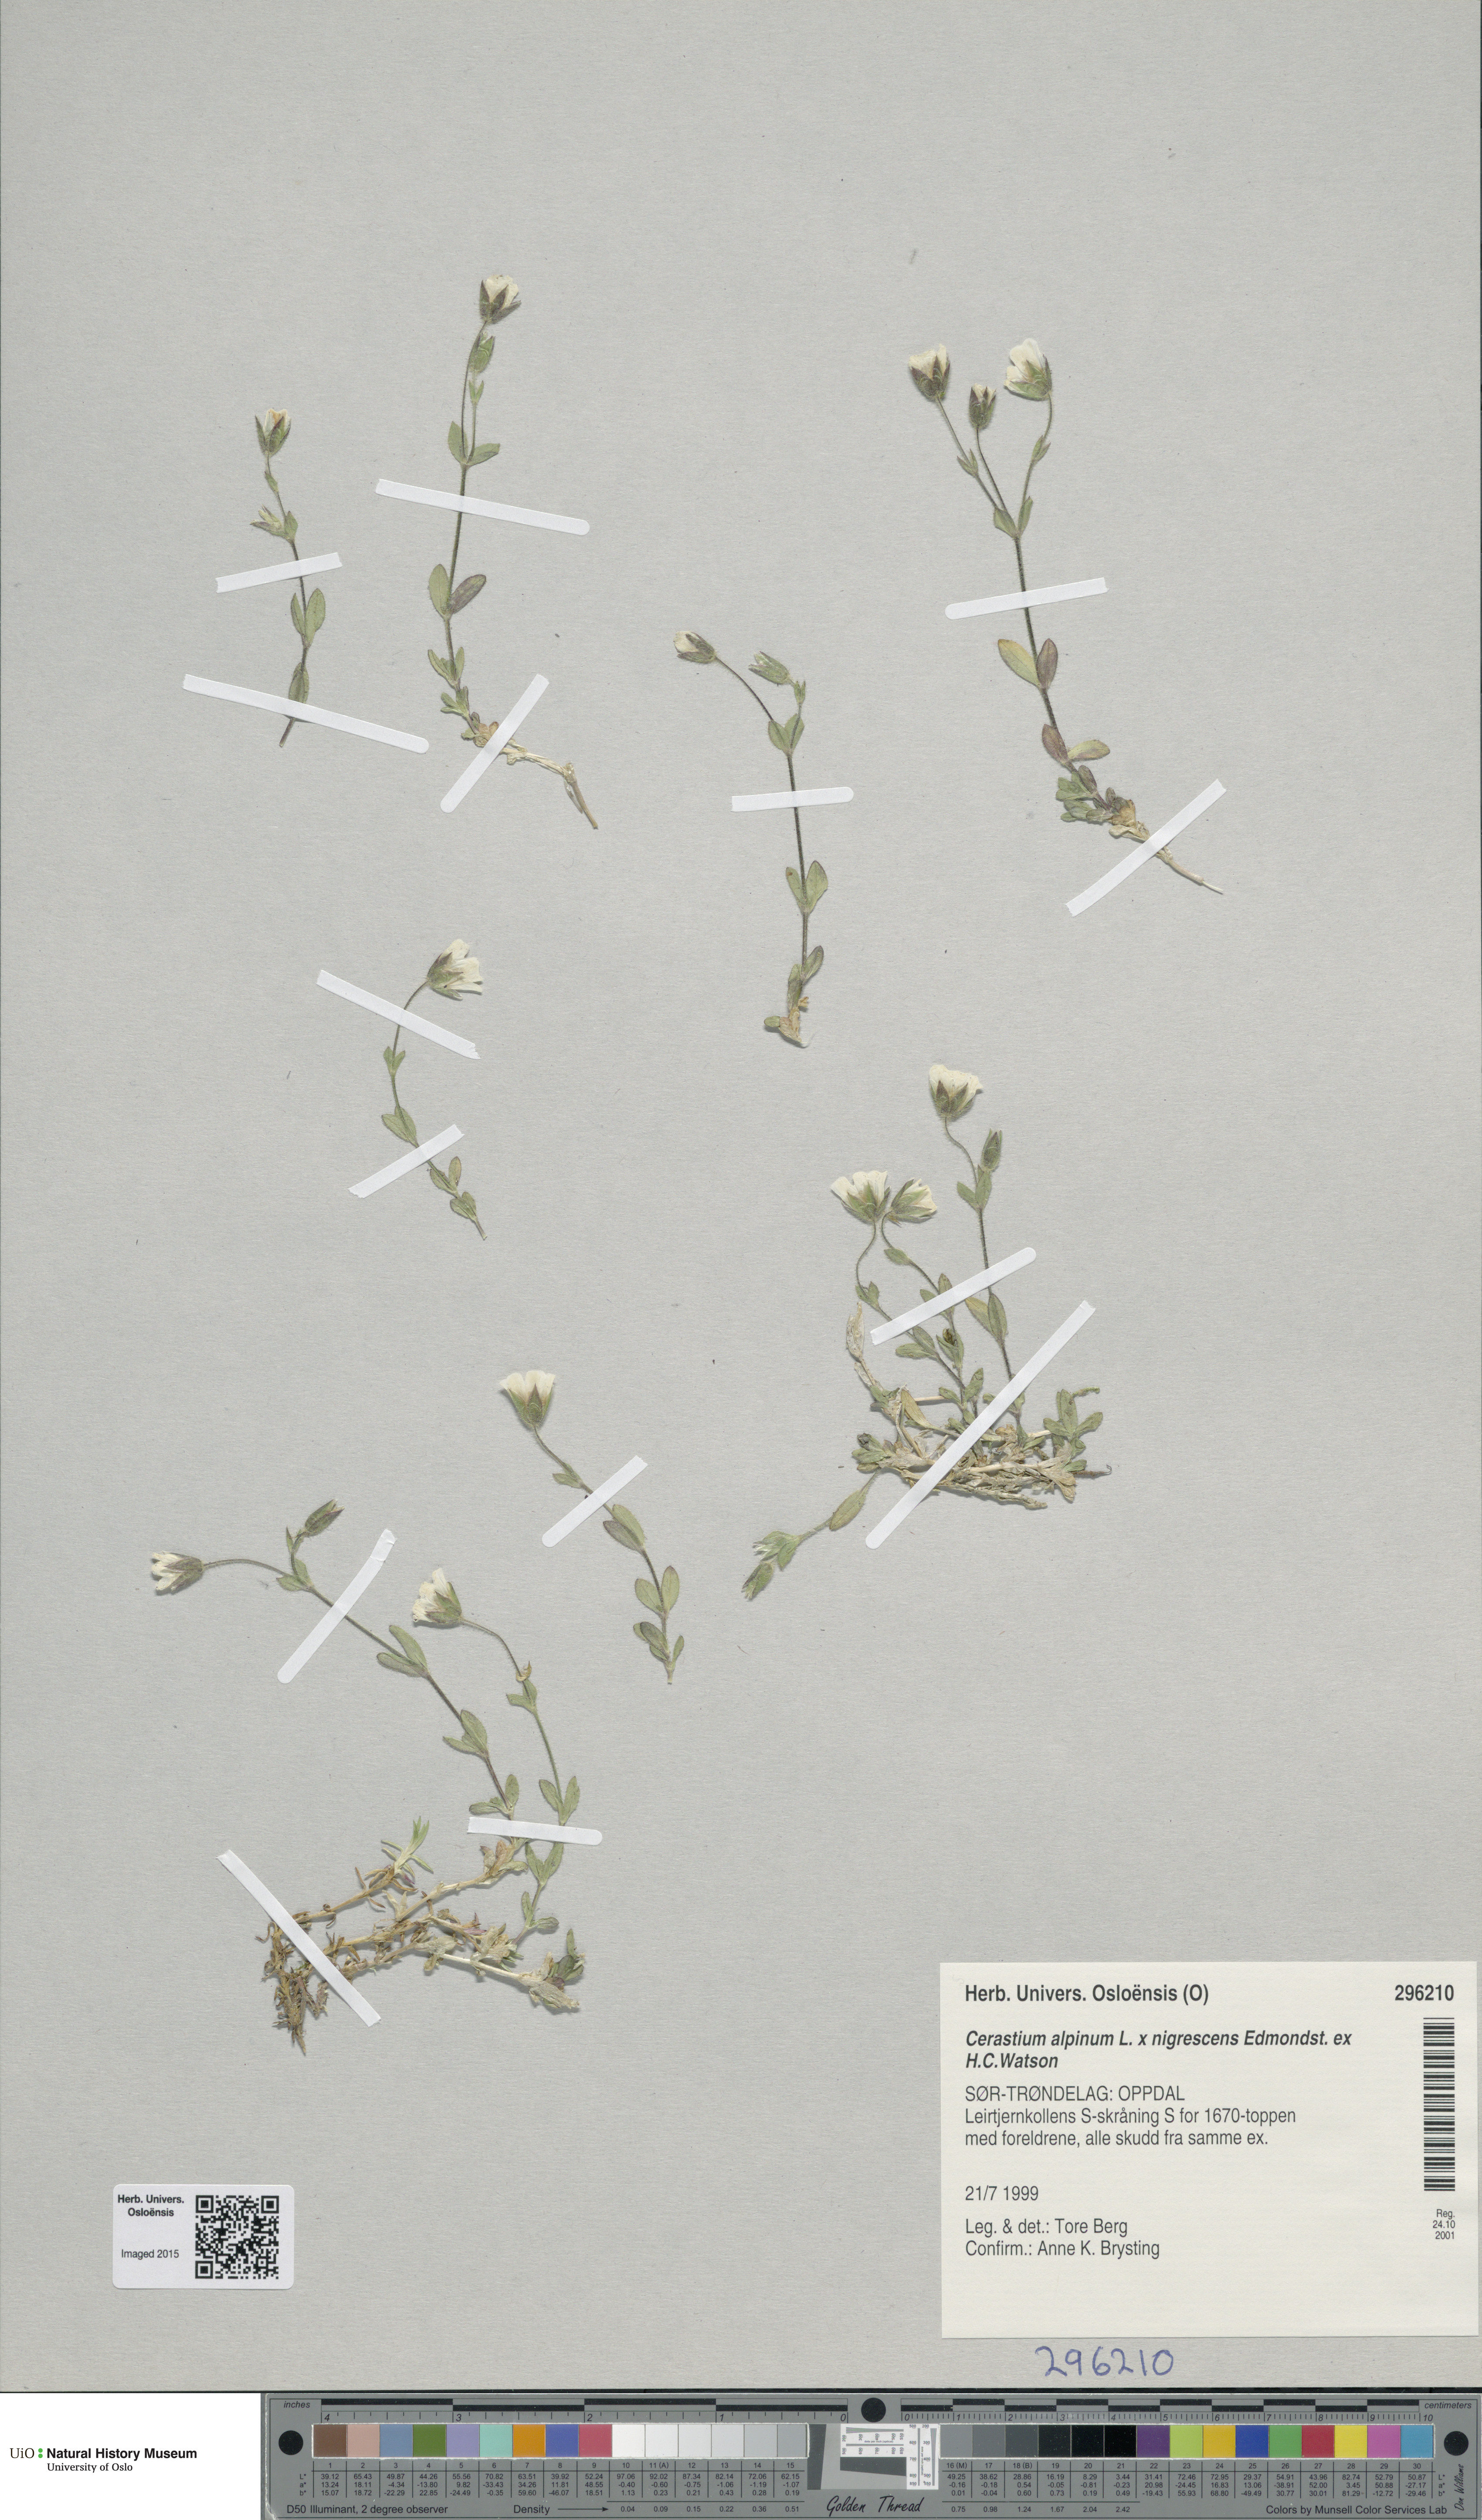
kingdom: Plantae
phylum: Tracheophyta
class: Magnoliopsida
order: Caryophyllales
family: Caryophyllaceae
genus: Cerastium
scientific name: Cerastium
